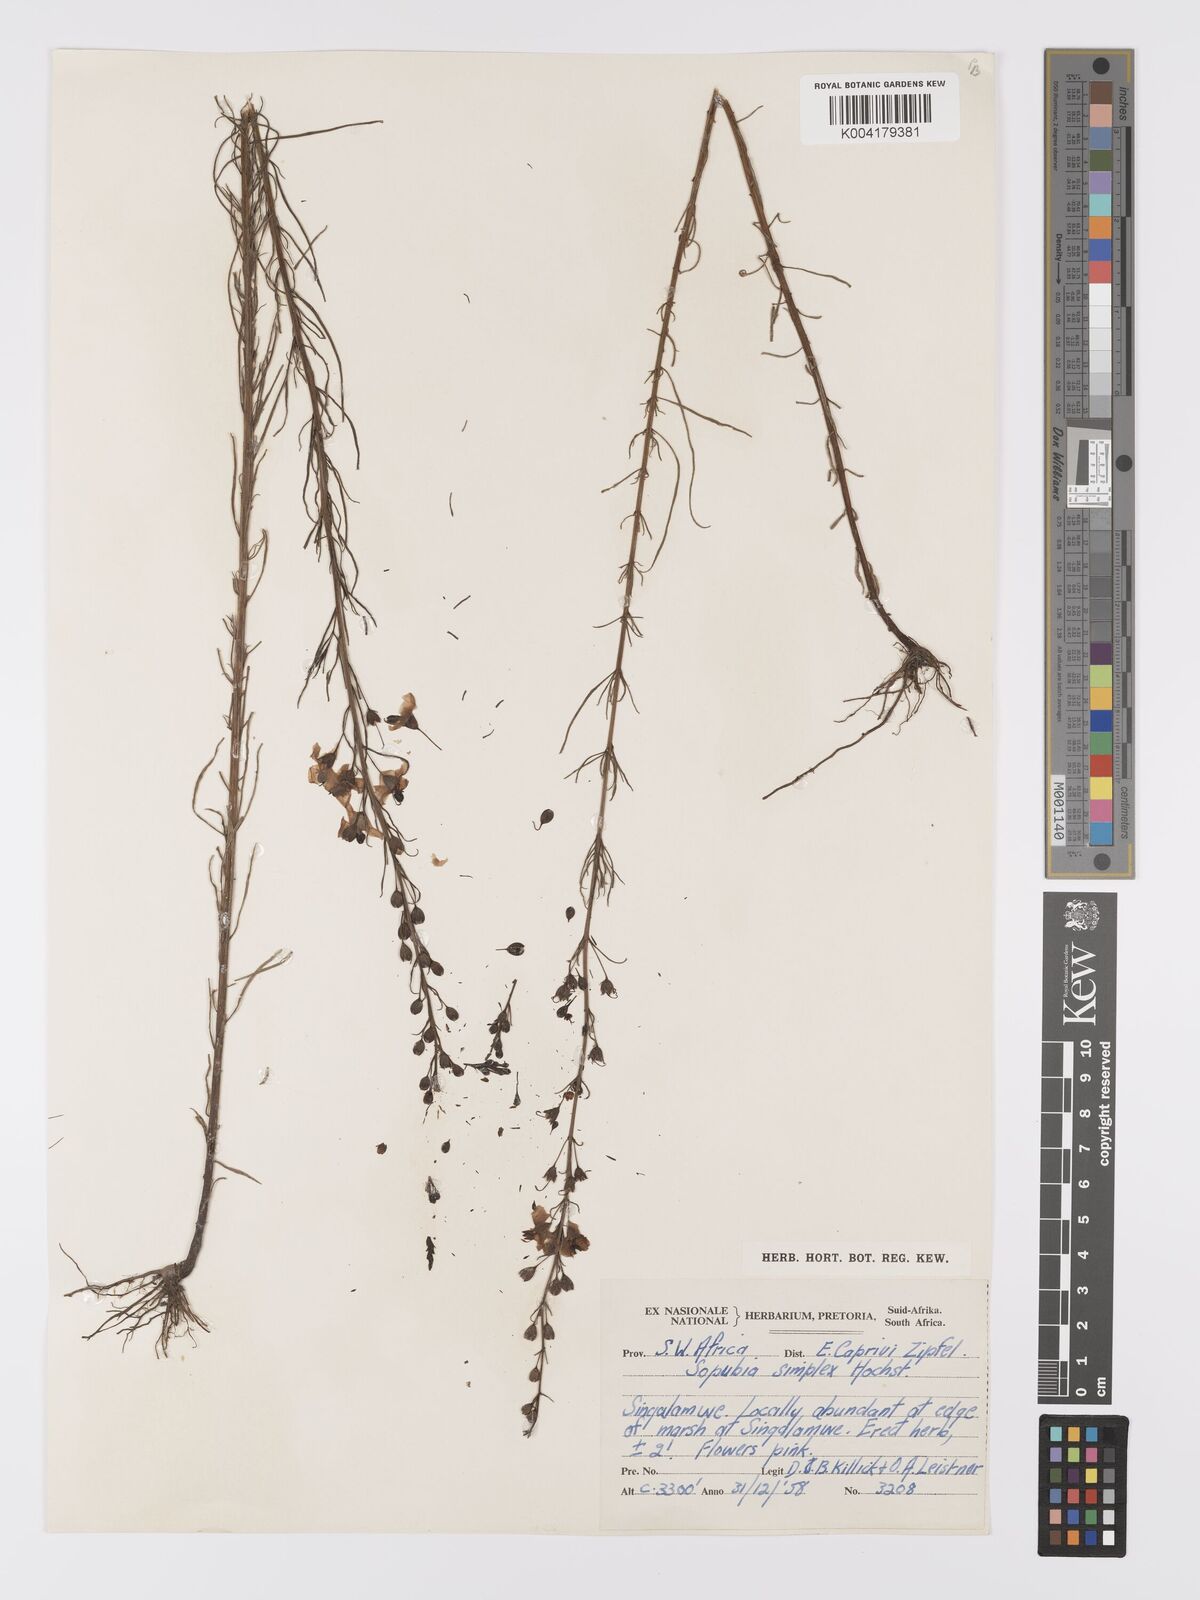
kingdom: Plantae
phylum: Tracheophyta
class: Magnoliopsida
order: Lamiales
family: Orobanchaceae
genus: Sopubia
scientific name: Sopubia simplex
